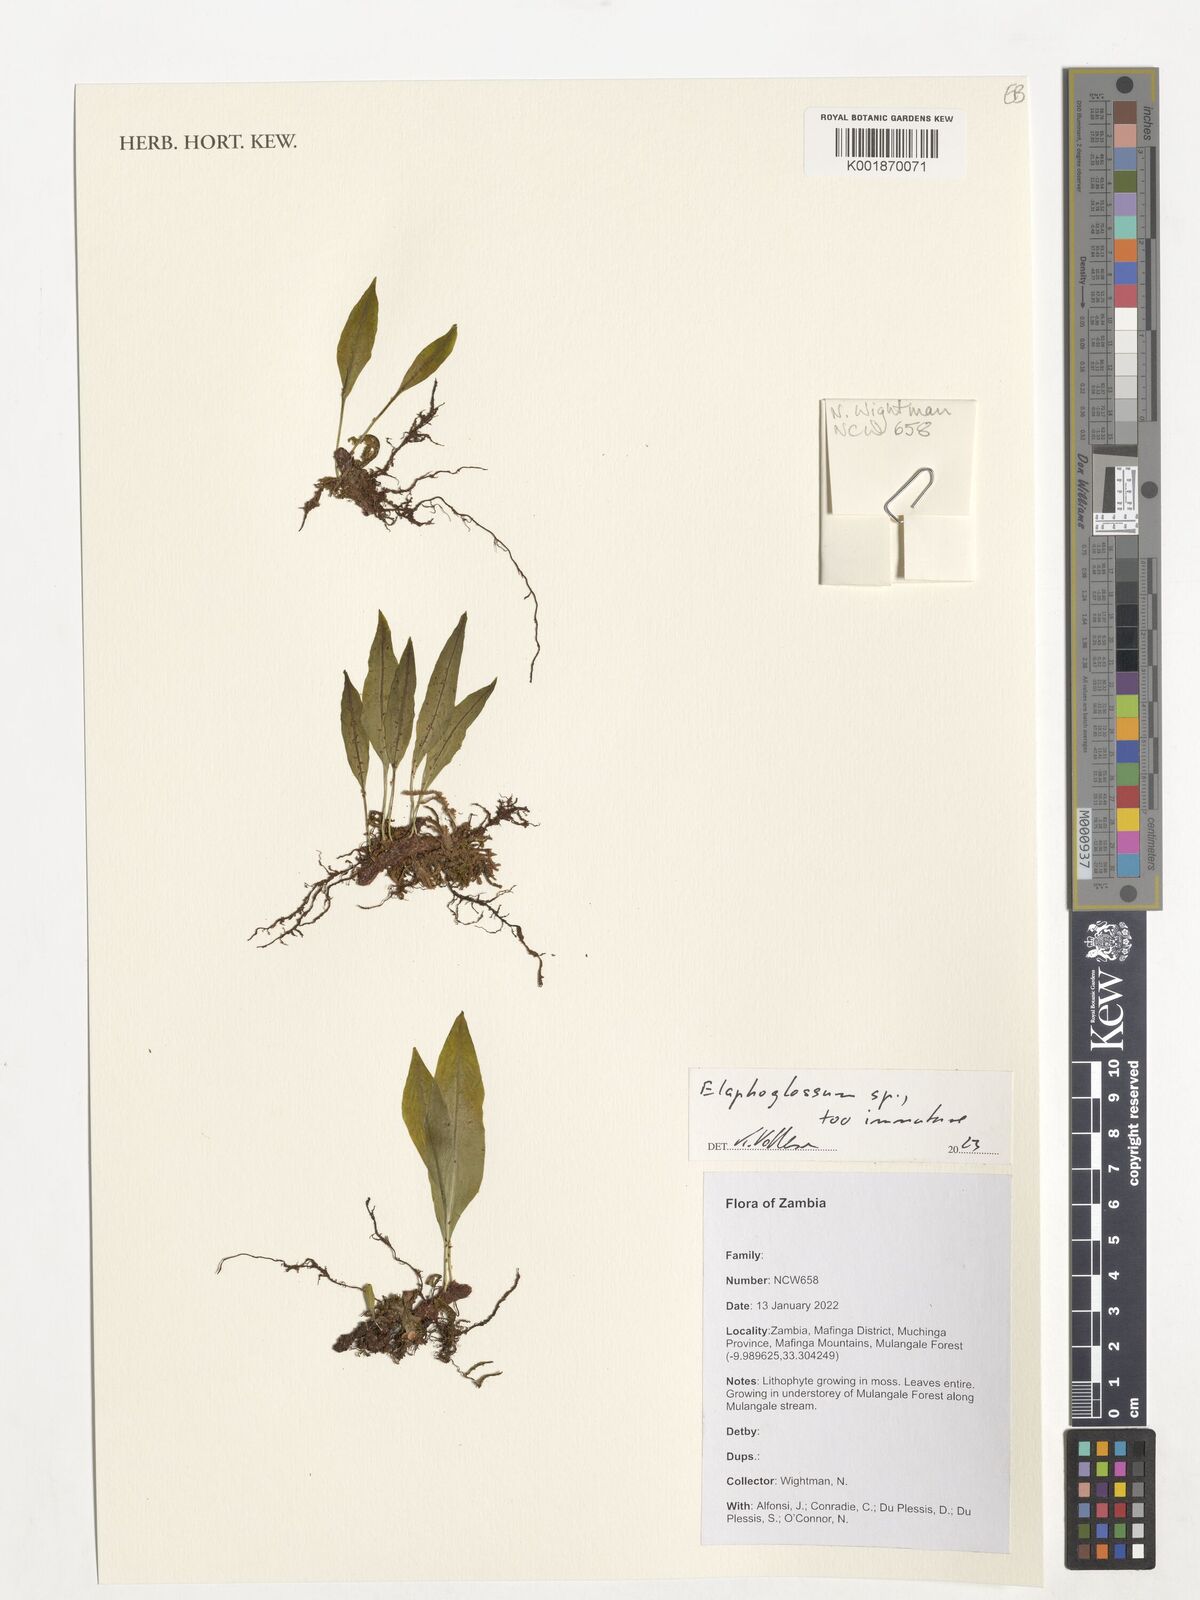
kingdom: Plantae
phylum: Tracheophyta
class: Polypodiopsida
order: Polypodiales
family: Dryopteridaceae
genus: Elaphoglossum
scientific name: Elaphoglossum
